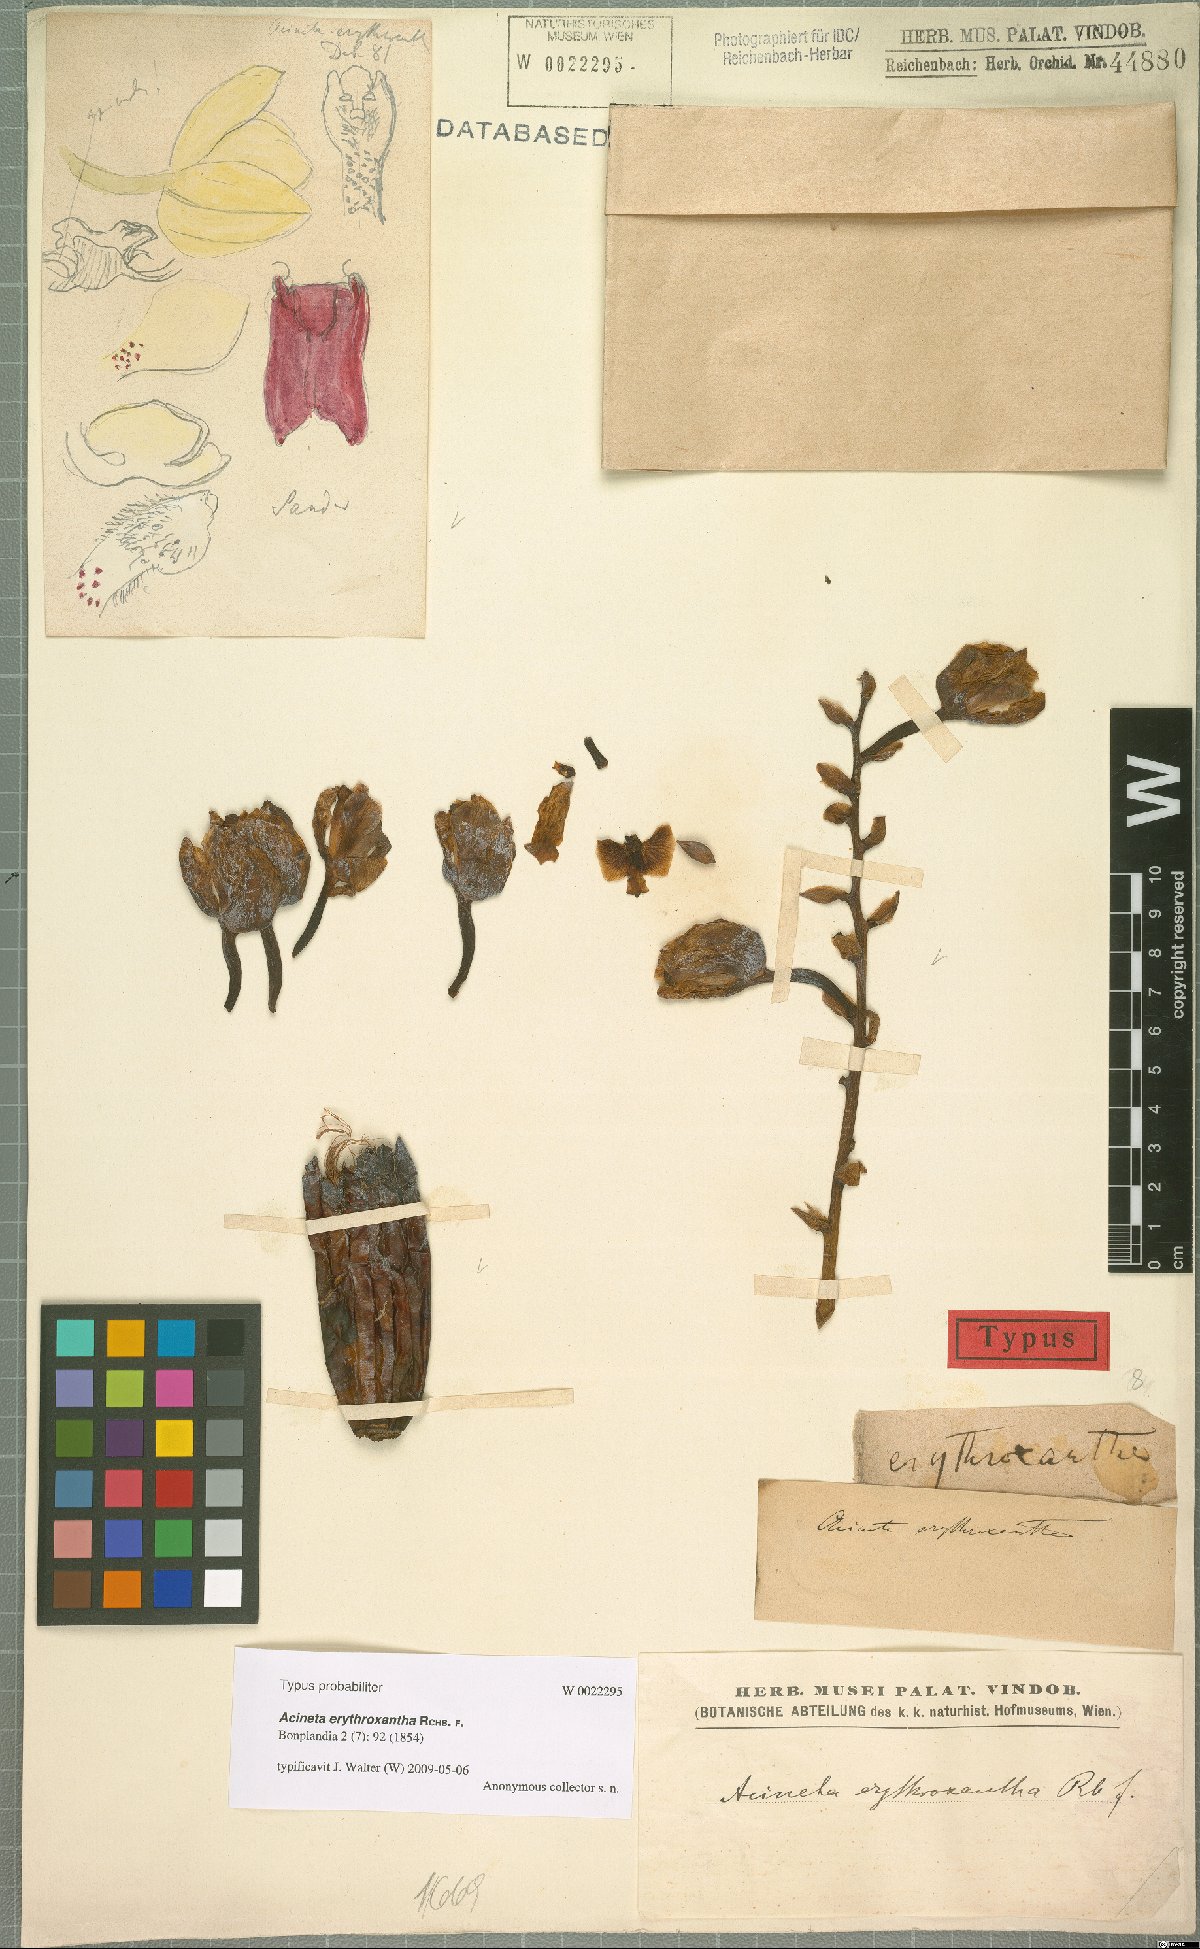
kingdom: Plantae
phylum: Tracheophyta
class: Liliopsida
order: Asparagales
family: Orchidaceae
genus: Acineta
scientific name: Acineta erythroxantha
